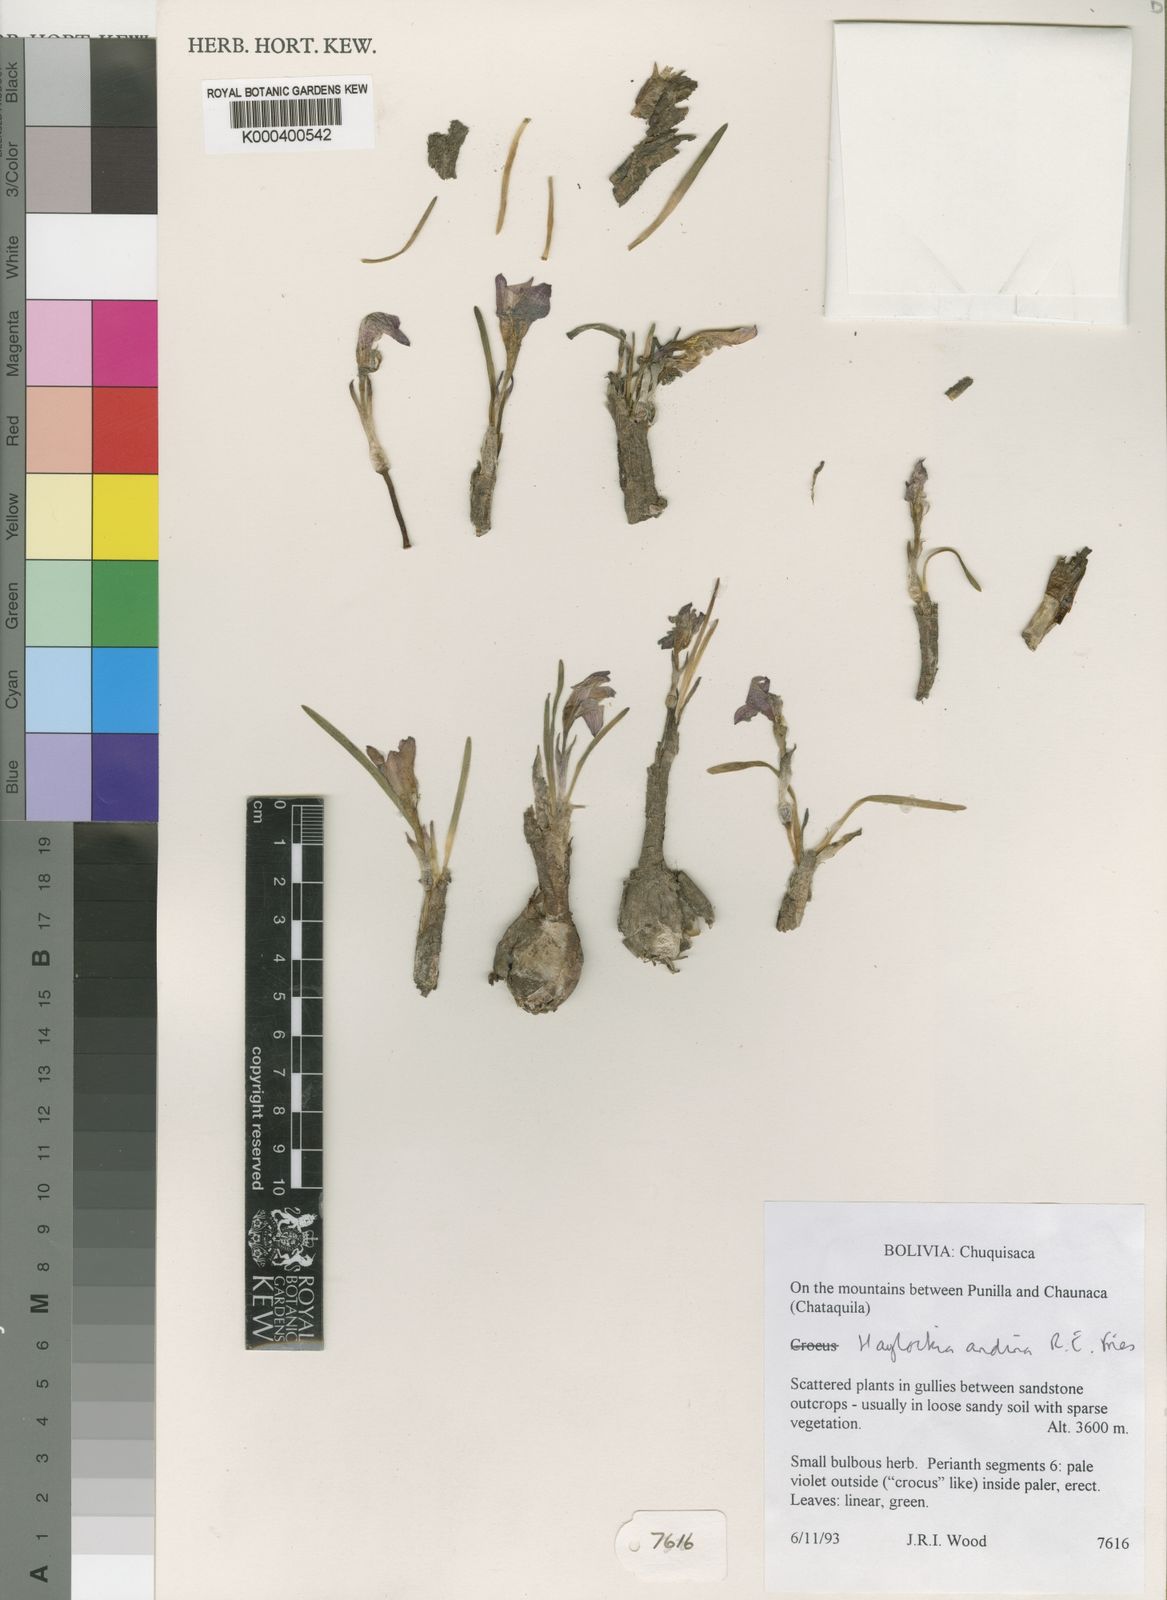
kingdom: Plantae
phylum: Tracheophyta
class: Liliopsida
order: Asparagales
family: Amaryllidaceae
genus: Zephyranthes
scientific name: Zephyranthes andina
